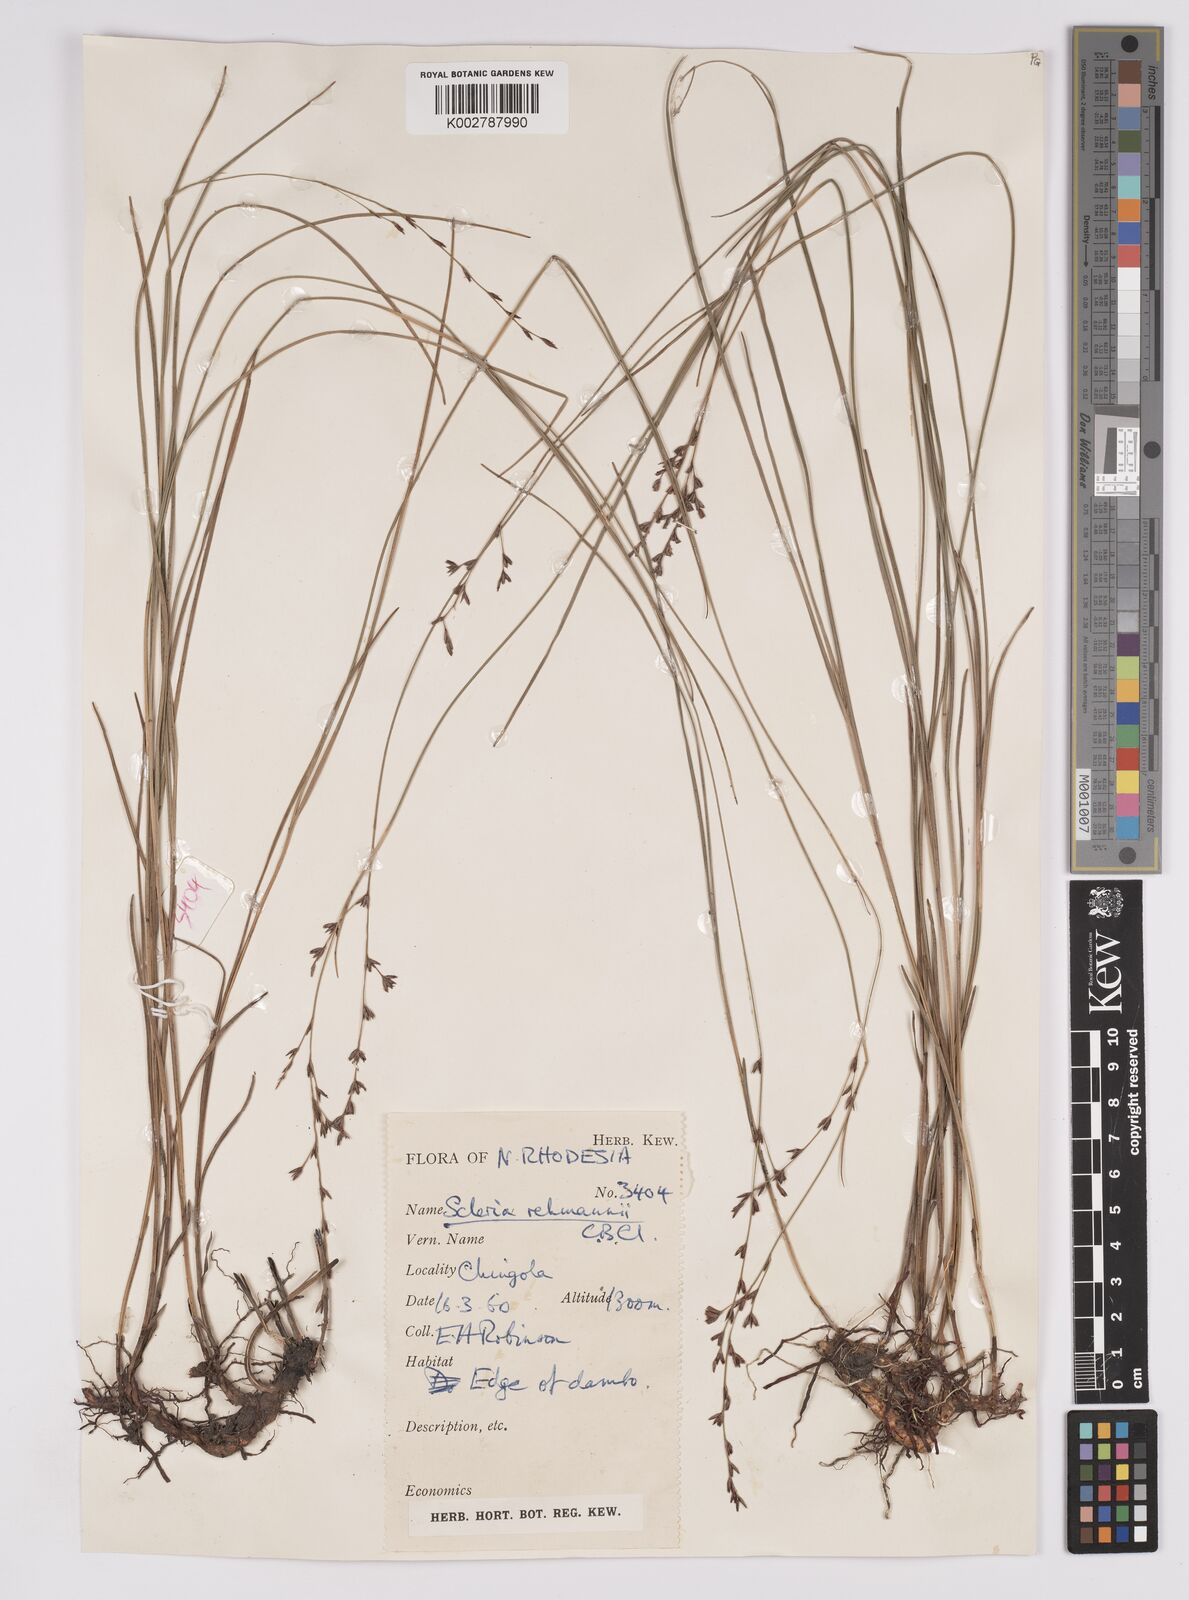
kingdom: Plantae
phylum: Tracheophyta
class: Liliopsida
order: Poales
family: Cyperaceae
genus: Scleria
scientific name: Scleria rehmannii
